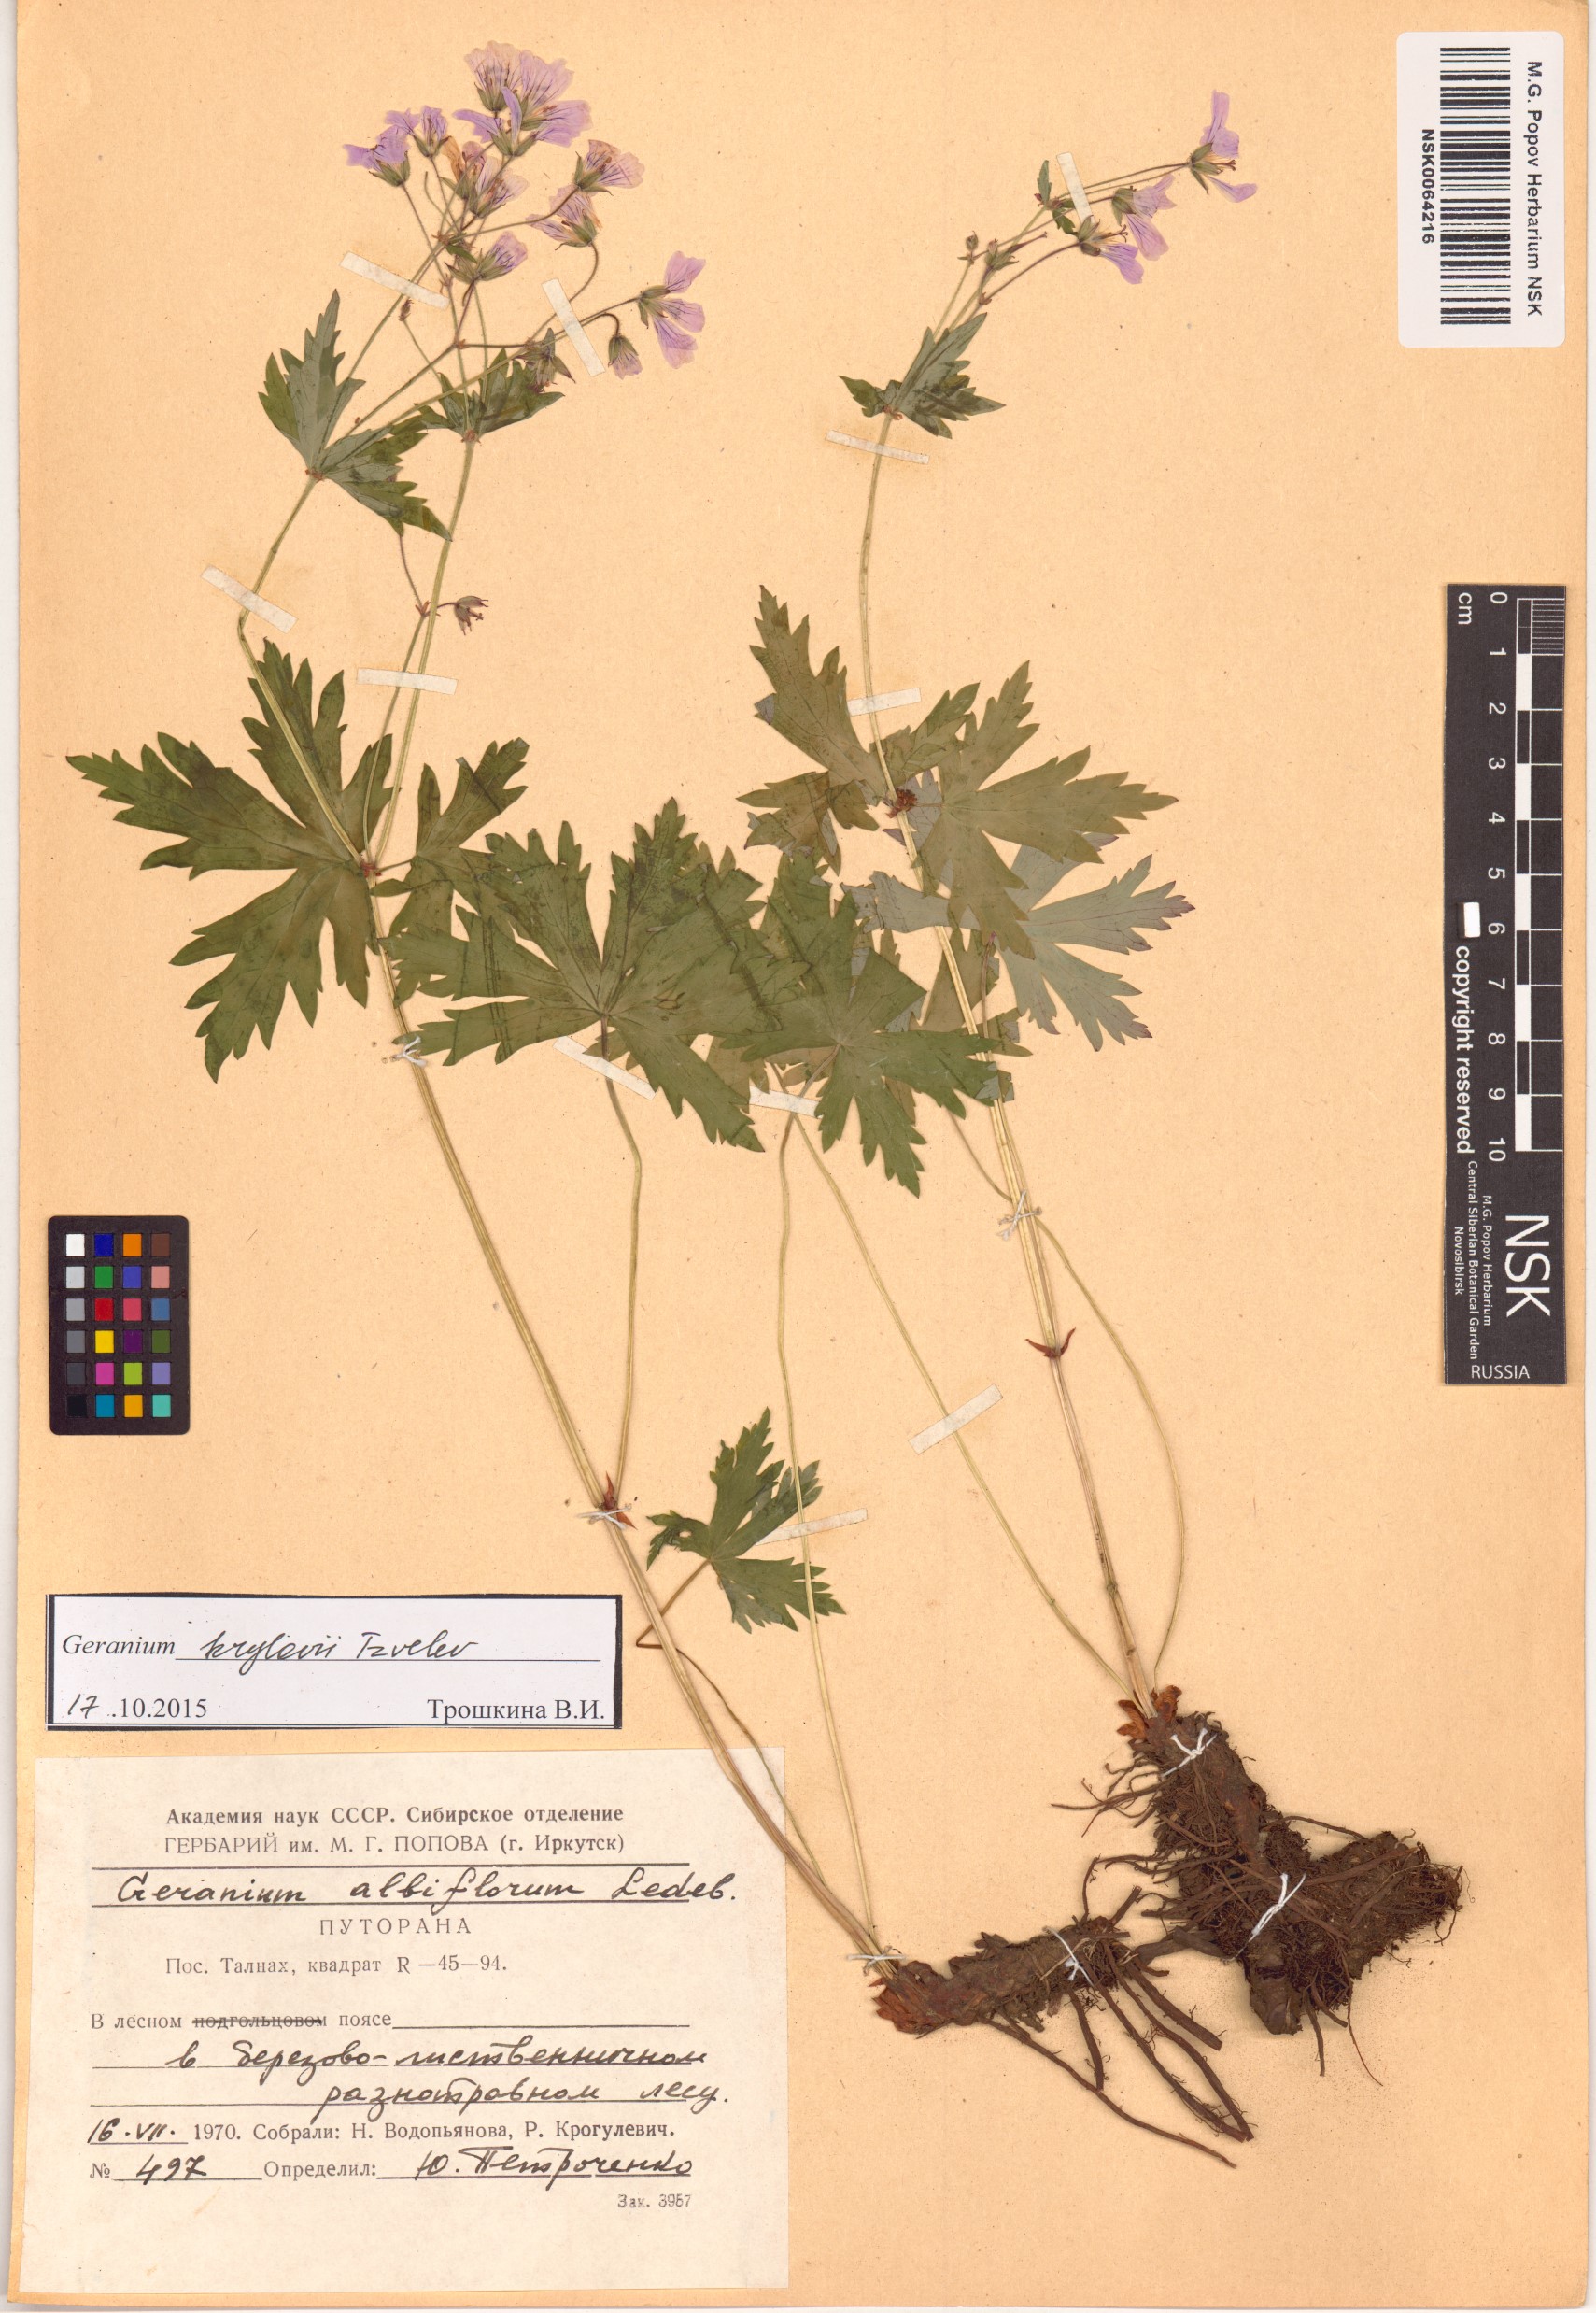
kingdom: Plantae
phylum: Tracheophyta
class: Magnoliopsida
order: Geraniales
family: Geraniaceae
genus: Geranium
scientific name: Geranium sylvaticum
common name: Wood crane's-bill
